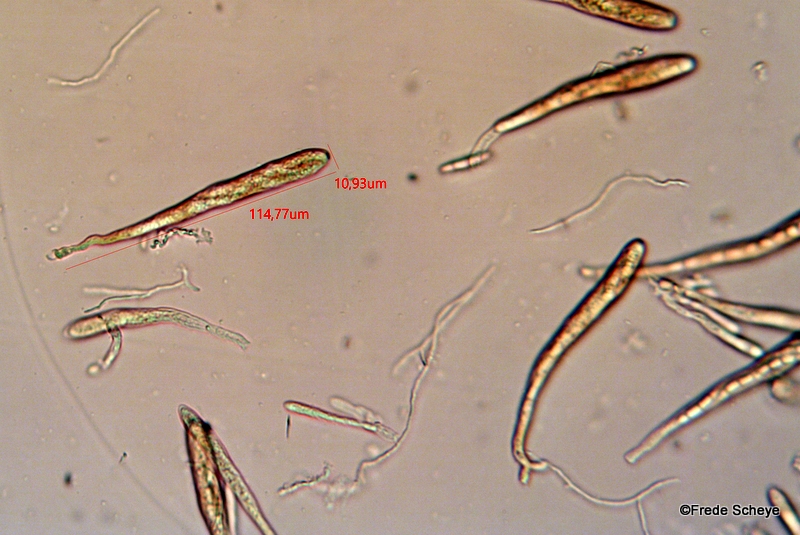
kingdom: Fungi
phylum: Ascomycota
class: Leotiomycetes
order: Helotiales
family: Hyaloscyphaceae
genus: Polydesmia
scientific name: Polydesmia pruinosa
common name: dunskive
